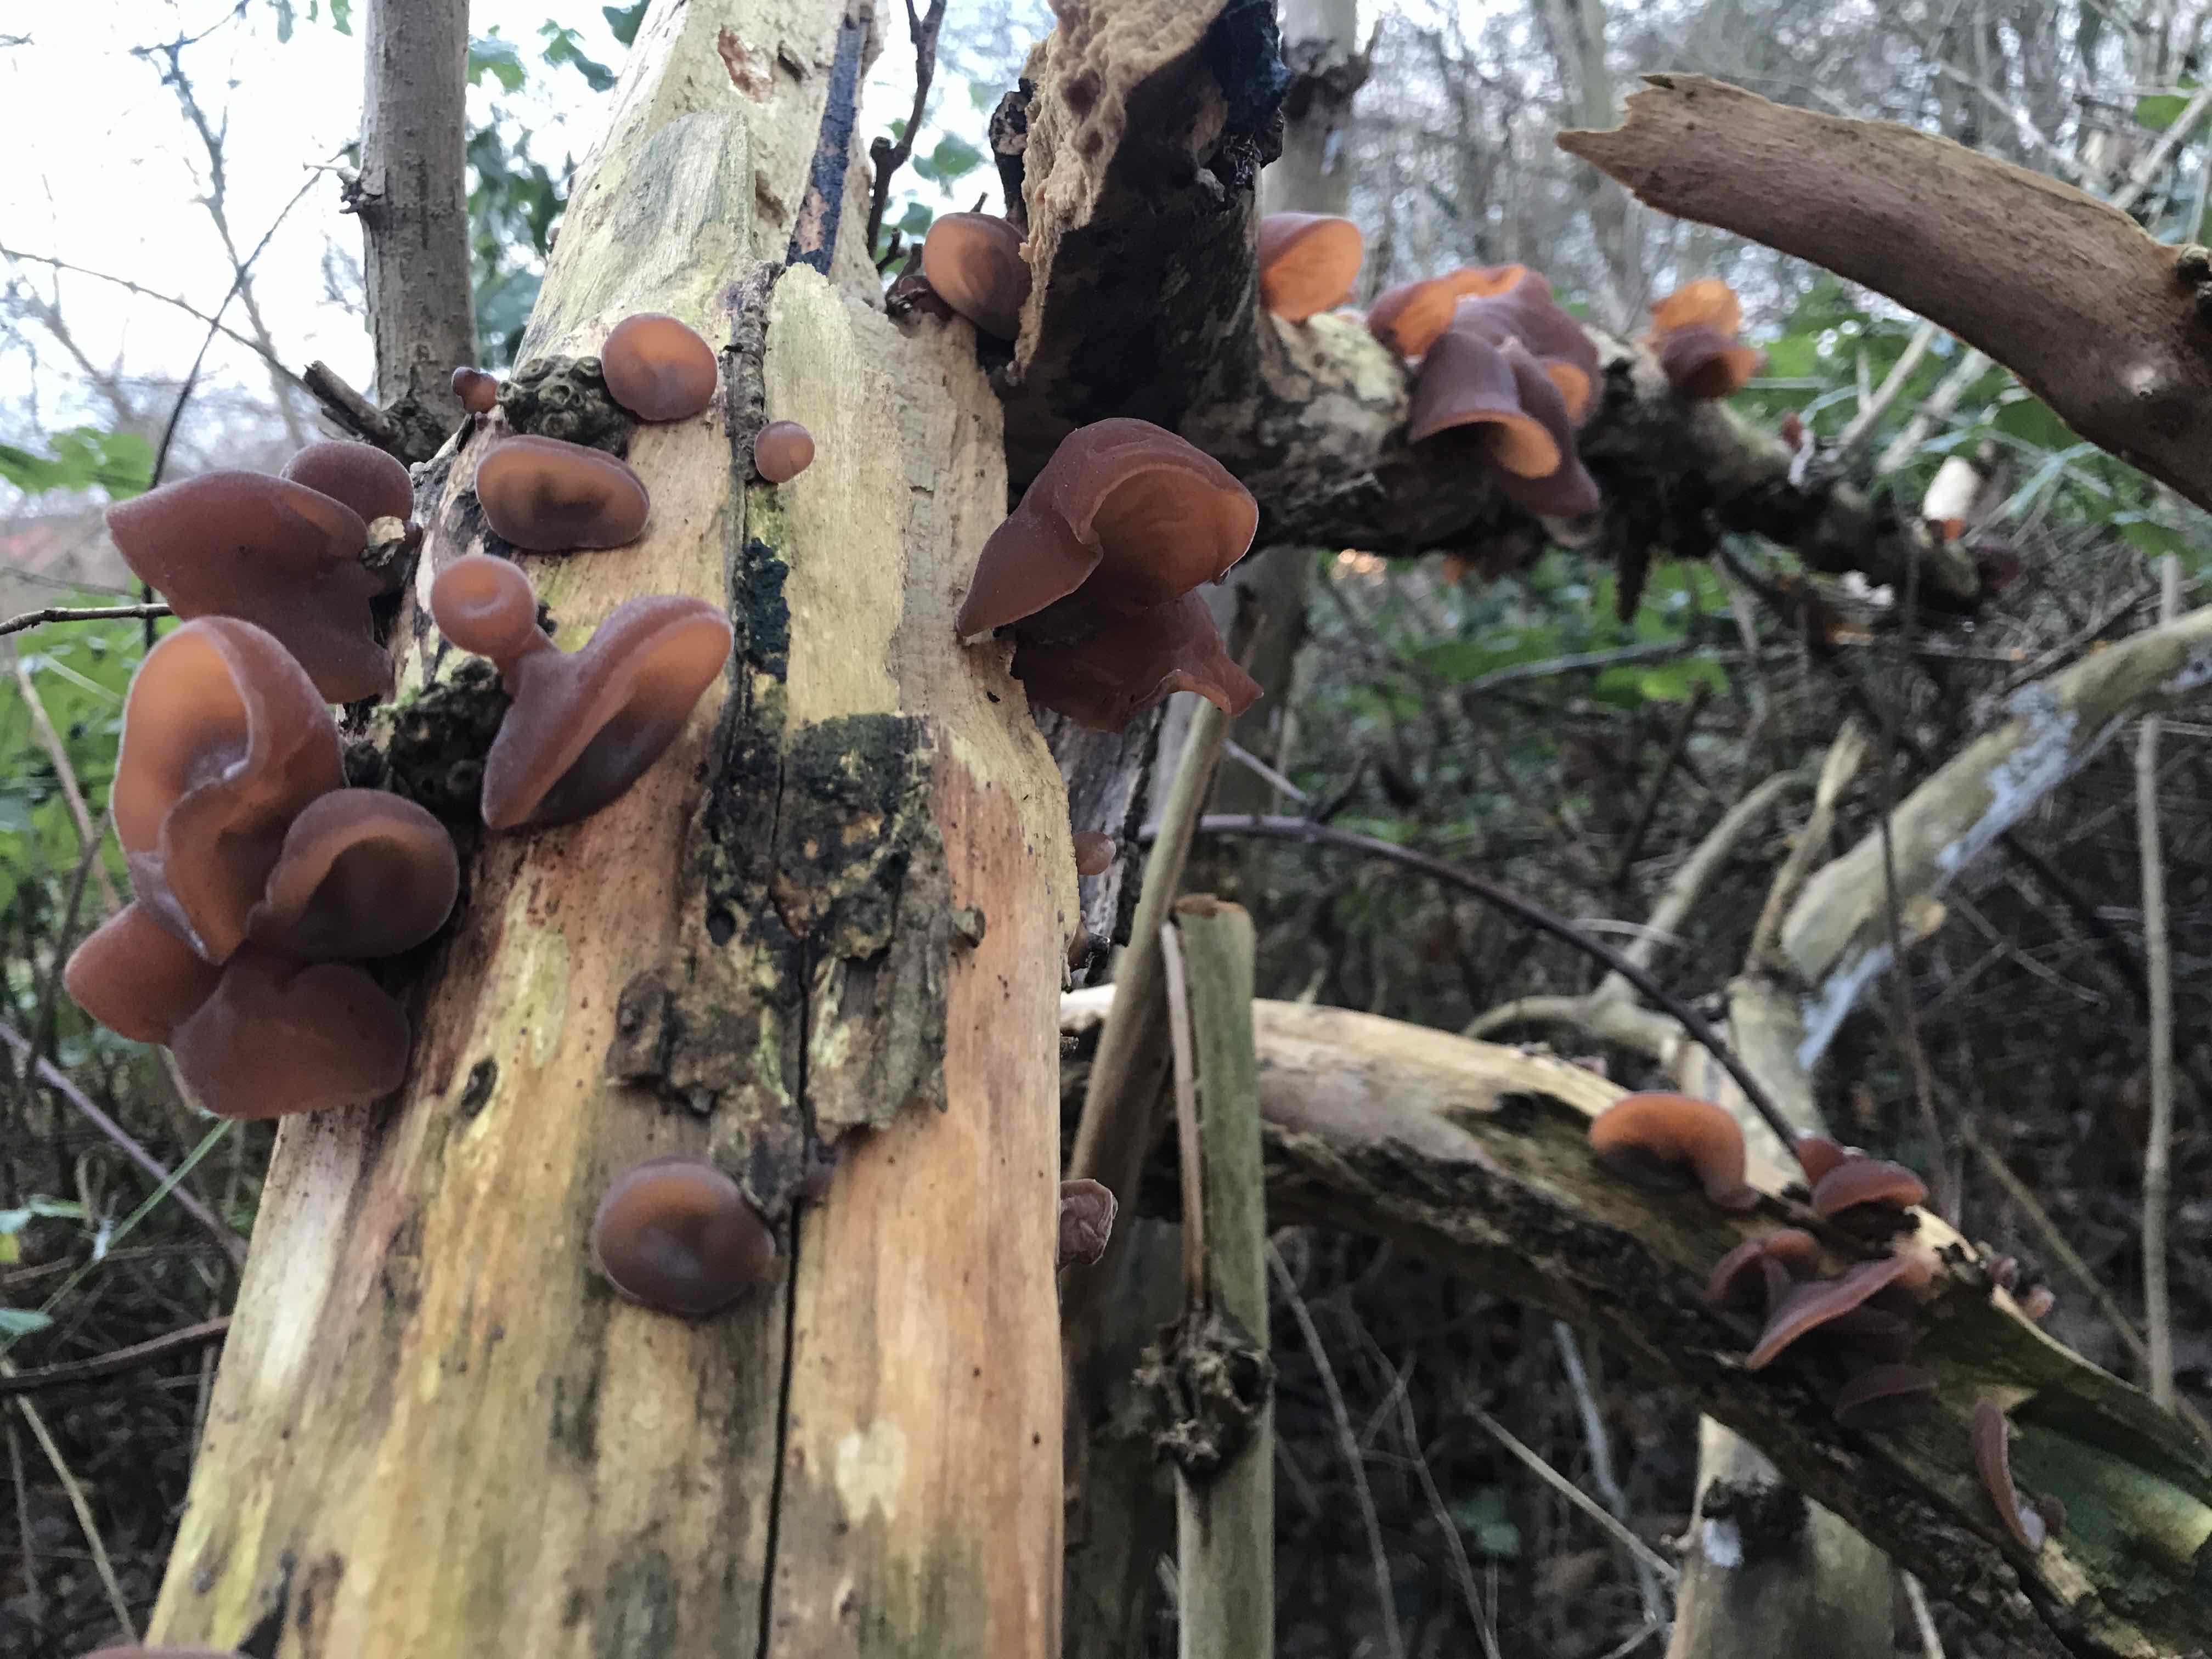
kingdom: Fungi
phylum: Basidiomycota
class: Agaricomycetes
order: Auriculariales
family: Auriculariaceae
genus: Auricularia
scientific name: Auricularia auricula-judae
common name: almindelig judasøre
